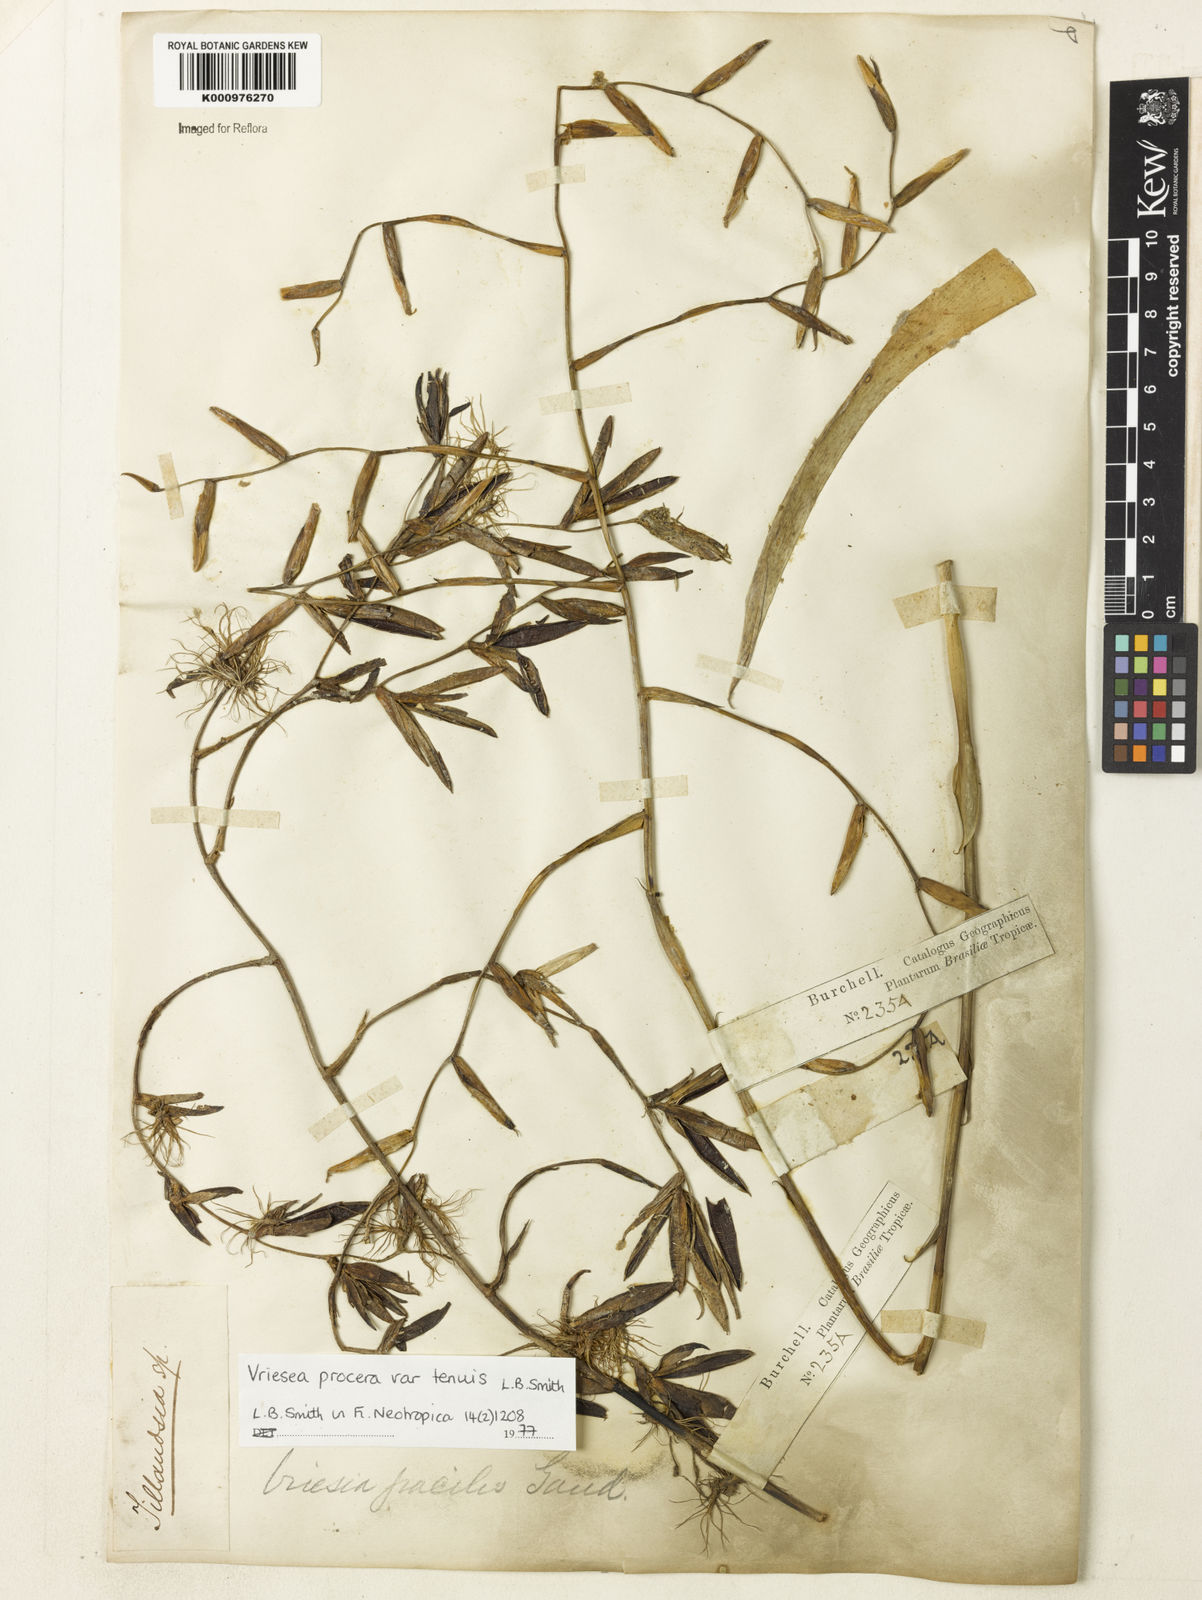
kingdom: Plantae
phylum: Tracheophyta
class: Liliopsida
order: Poales
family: Bromeliaceae
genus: Vriesea
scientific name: Vriesea procera
